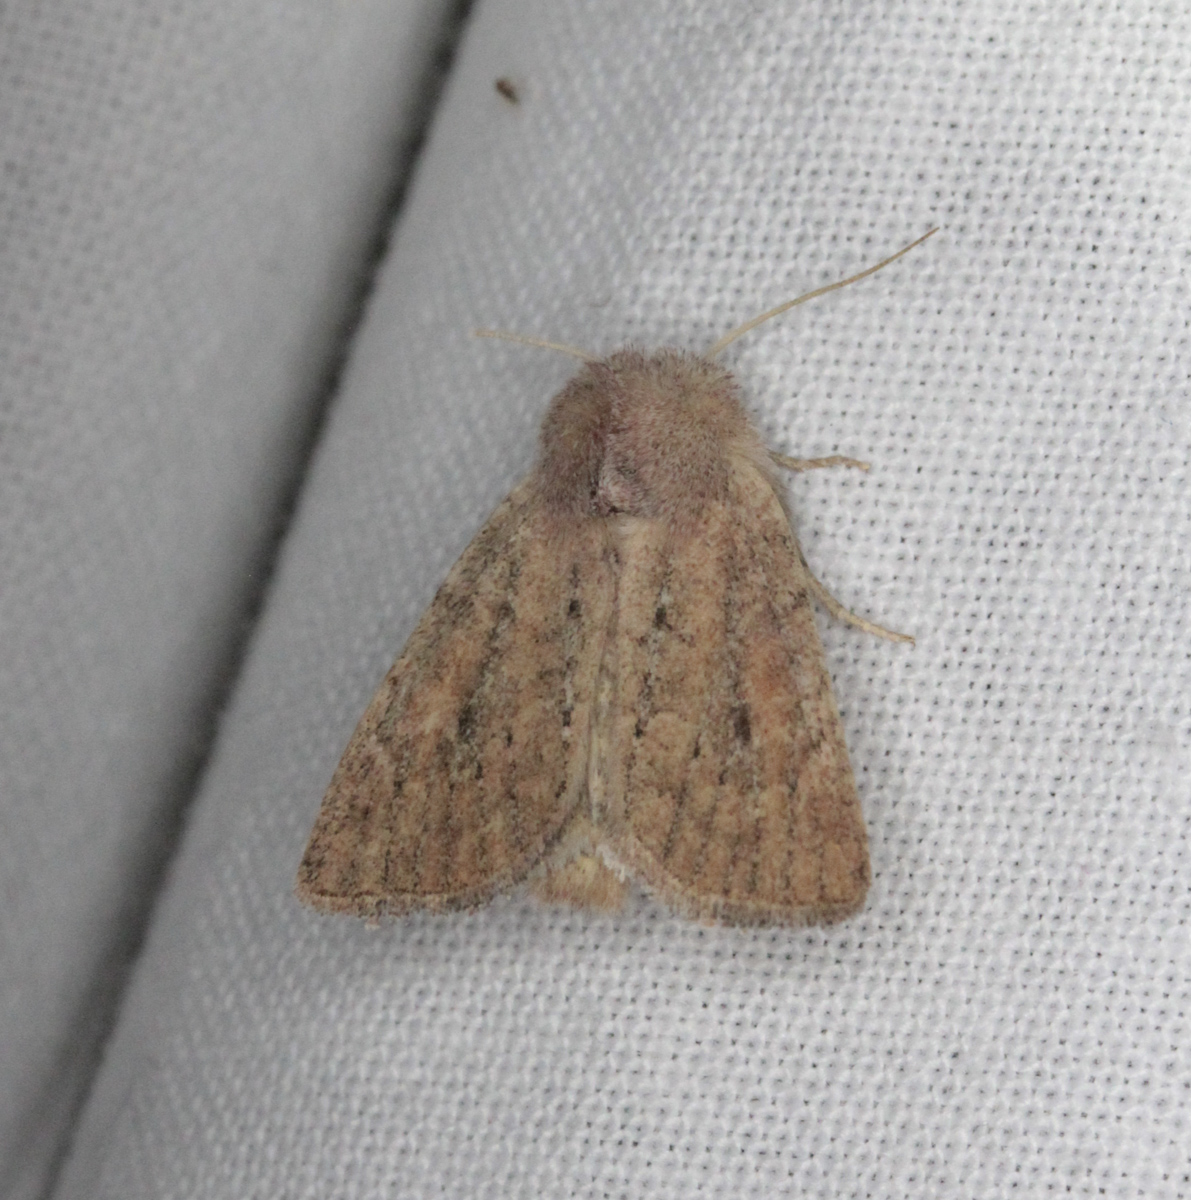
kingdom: Animalia
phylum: Arthropoda
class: Insecta
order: Lepidoptera
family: Noctuidae
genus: Photedes
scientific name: Photedes fluxa
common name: Mere wainscot
